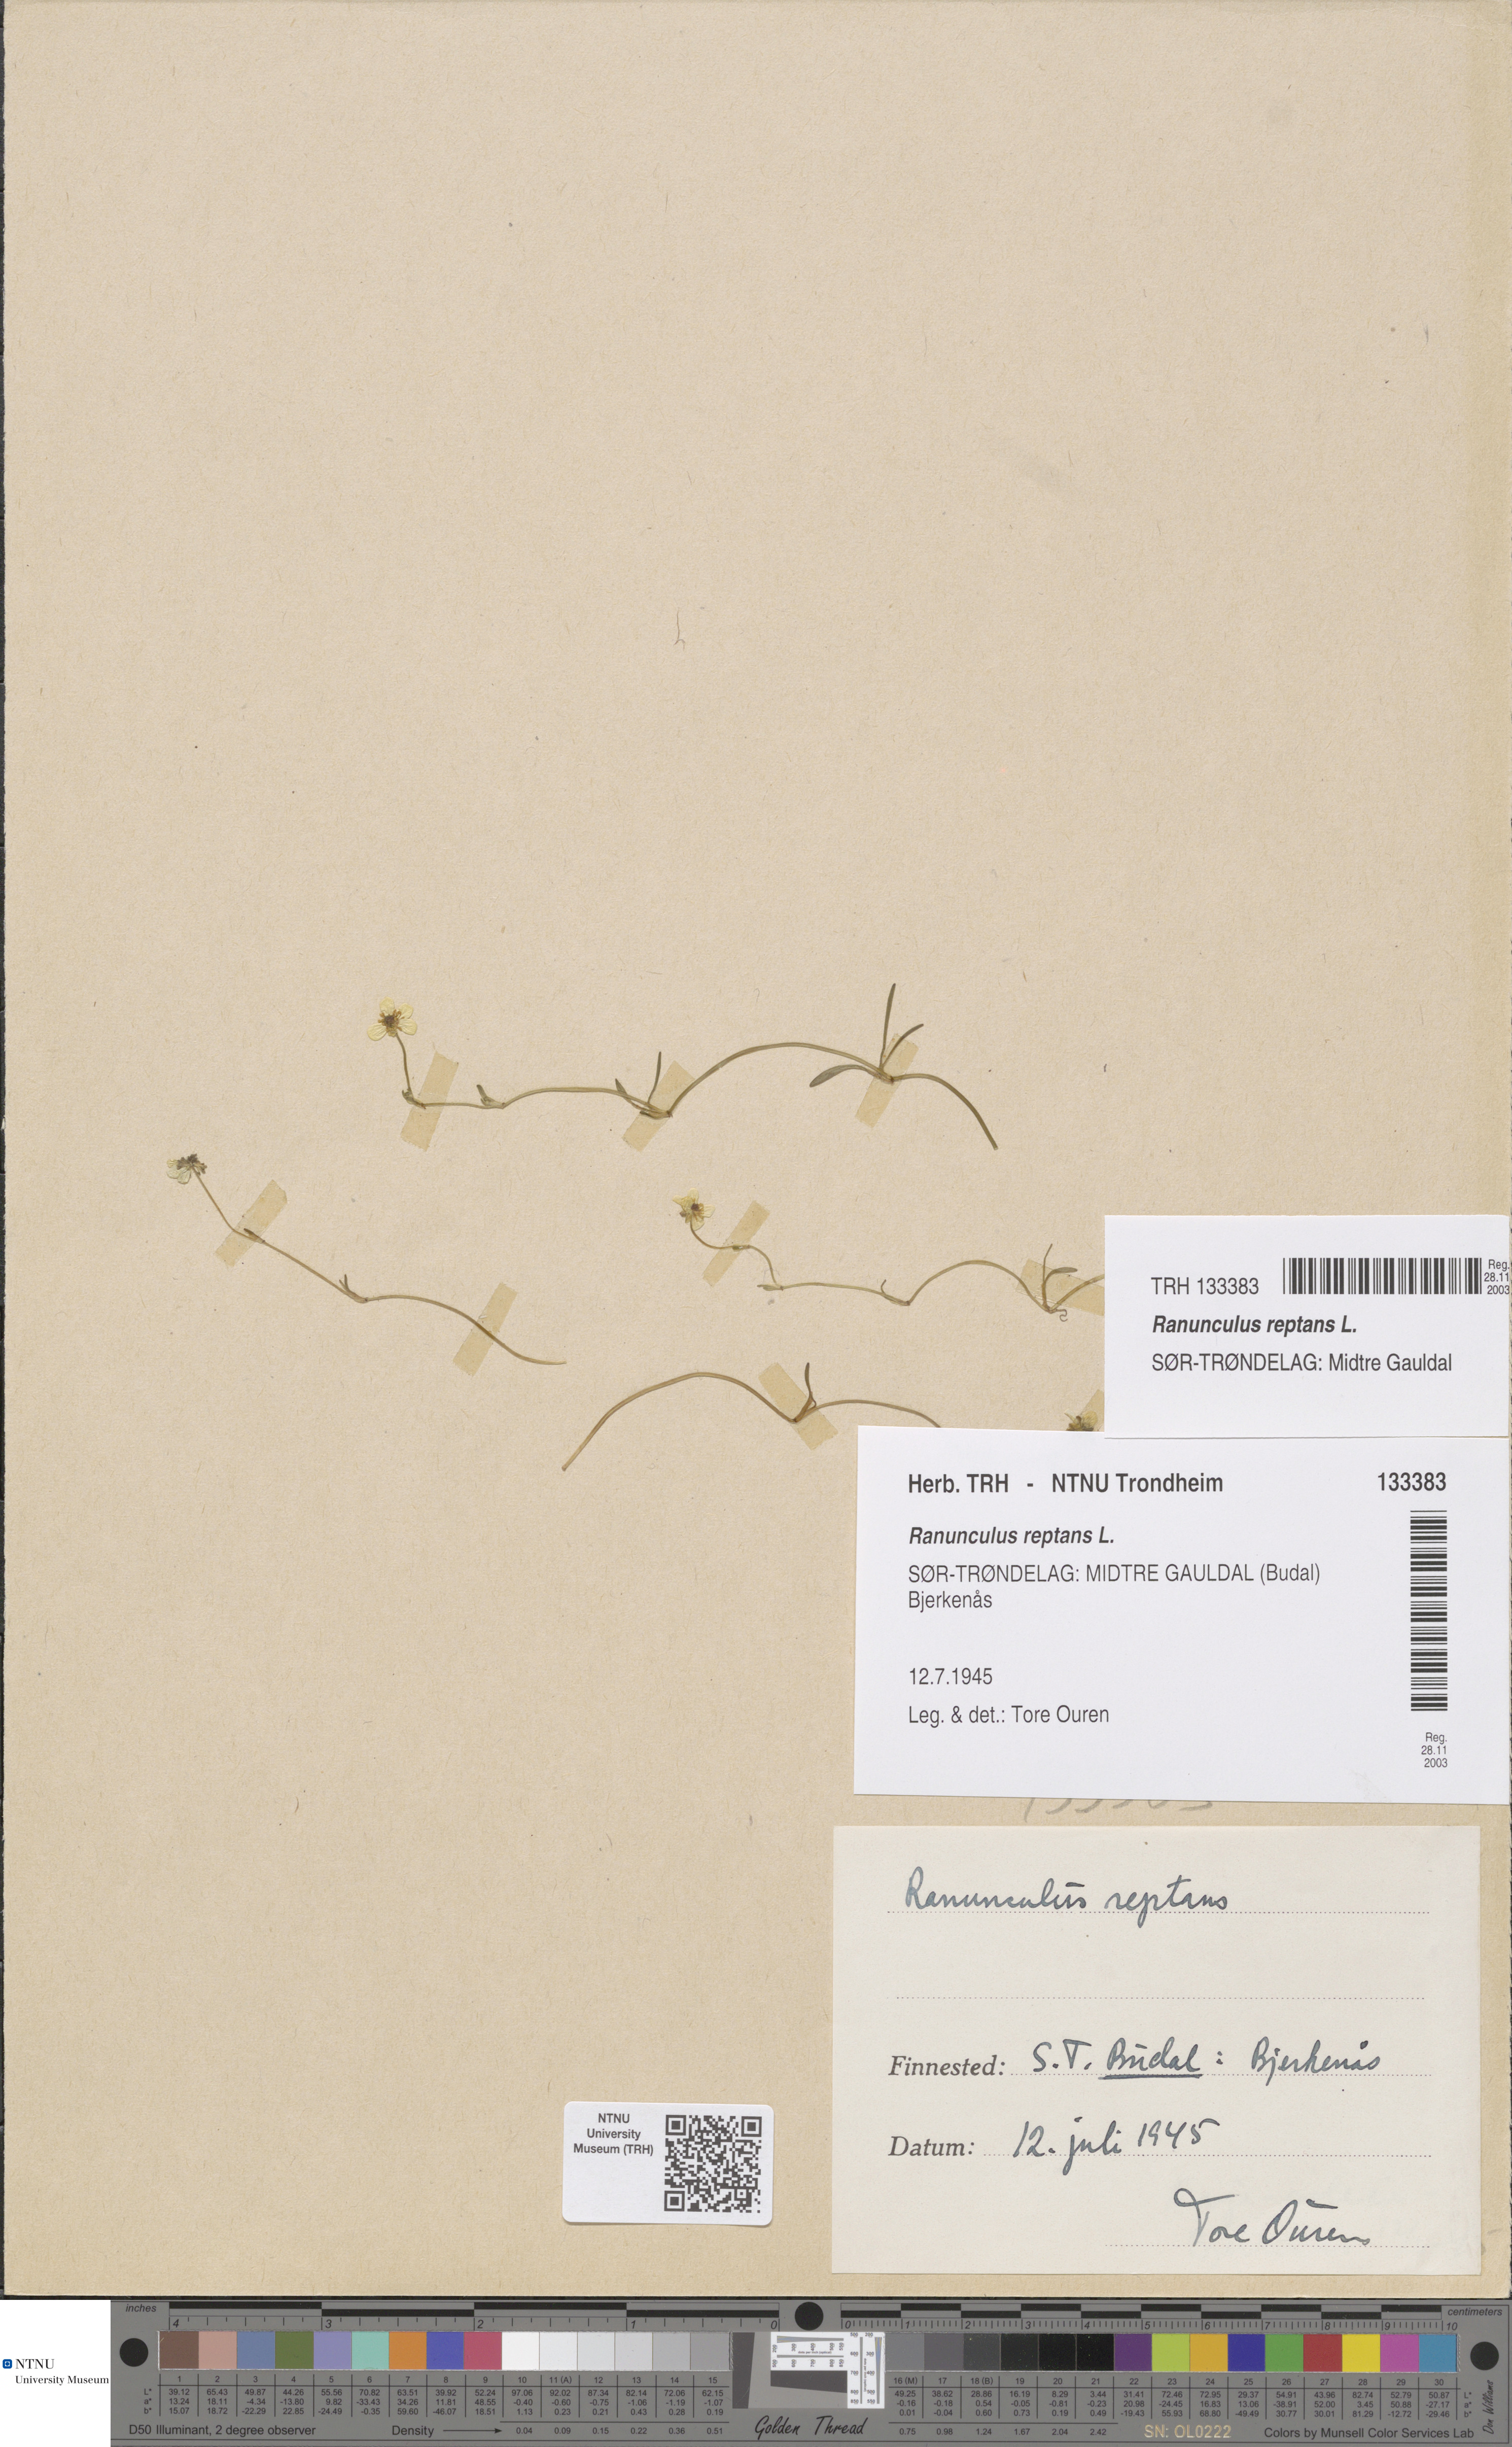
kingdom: Plantae
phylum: Tracheophyta
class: Magnoliopsida
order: Ranunculales
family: Ranunculaceae
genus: Ranunculus
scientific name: Ranunculus reptans
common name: Creeping spearwort
